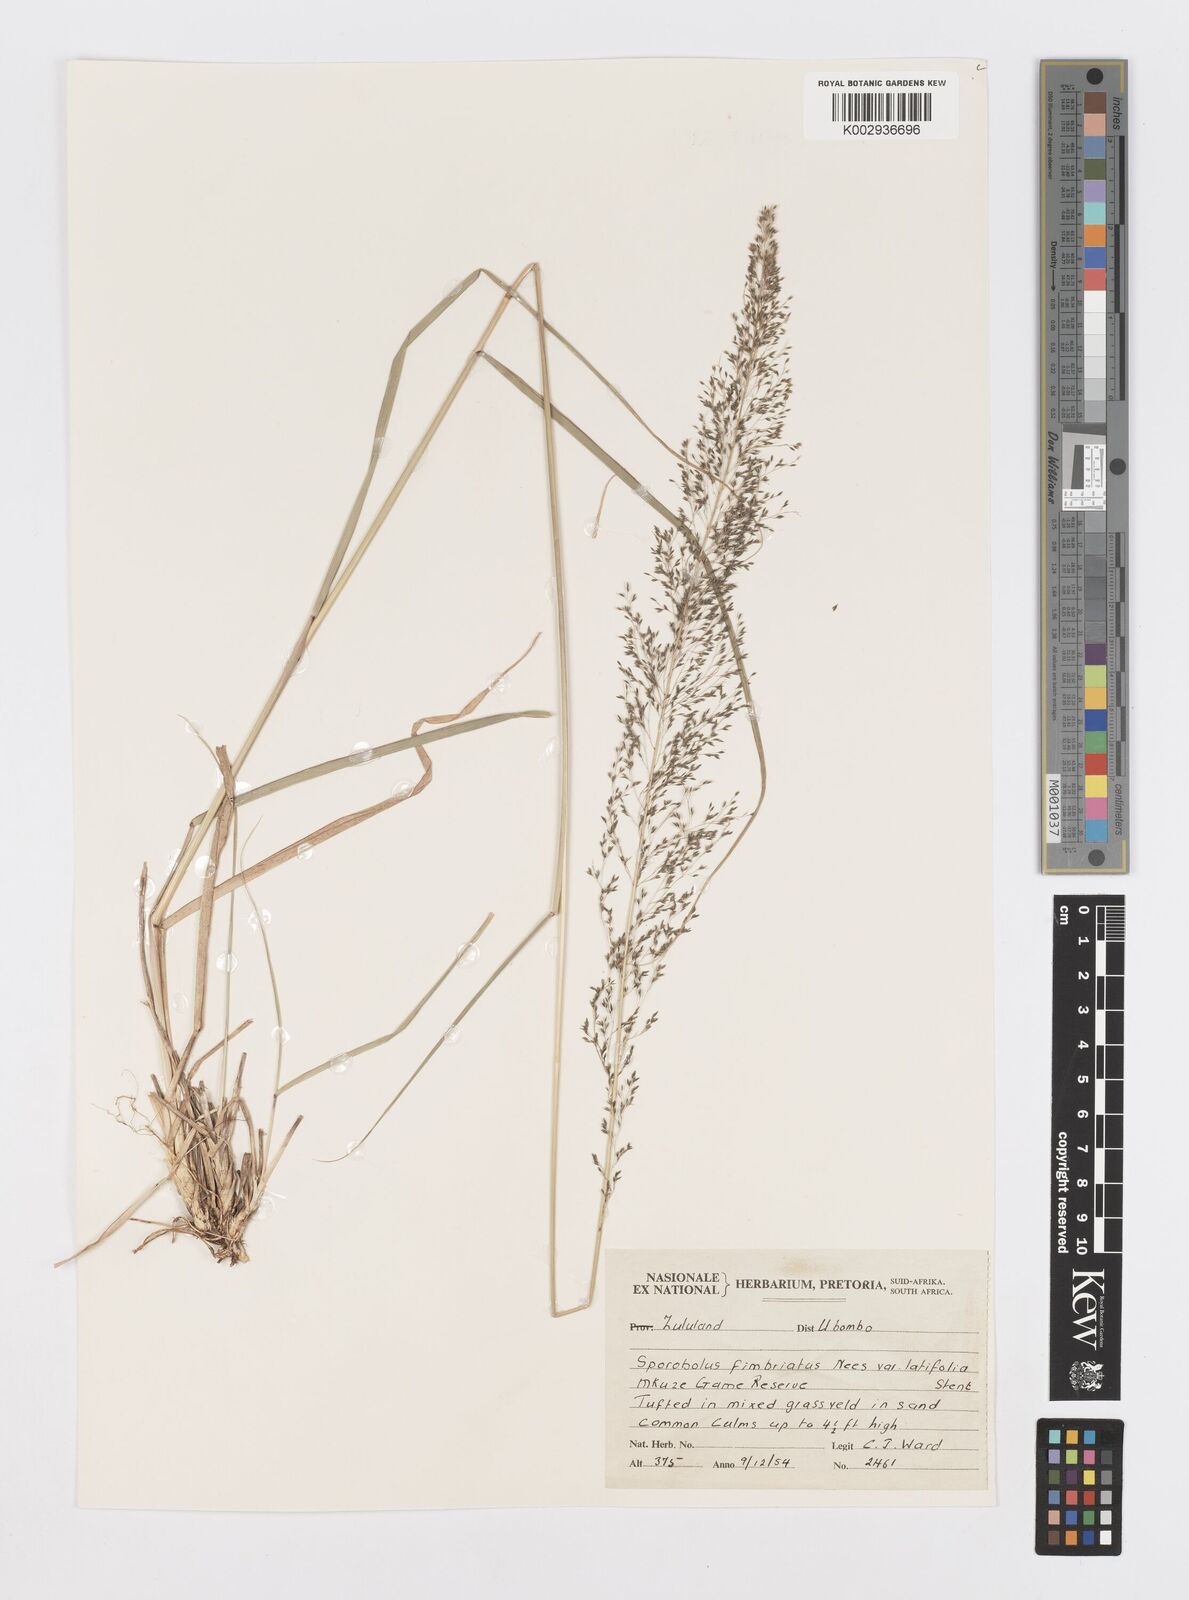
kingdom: Plantae
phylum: Tracheophyta
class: Liliopsida
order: Poales
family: Poaceae
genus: Sporobolus
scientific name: Sporobolus fimbriatus
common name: Fringed dropseed
